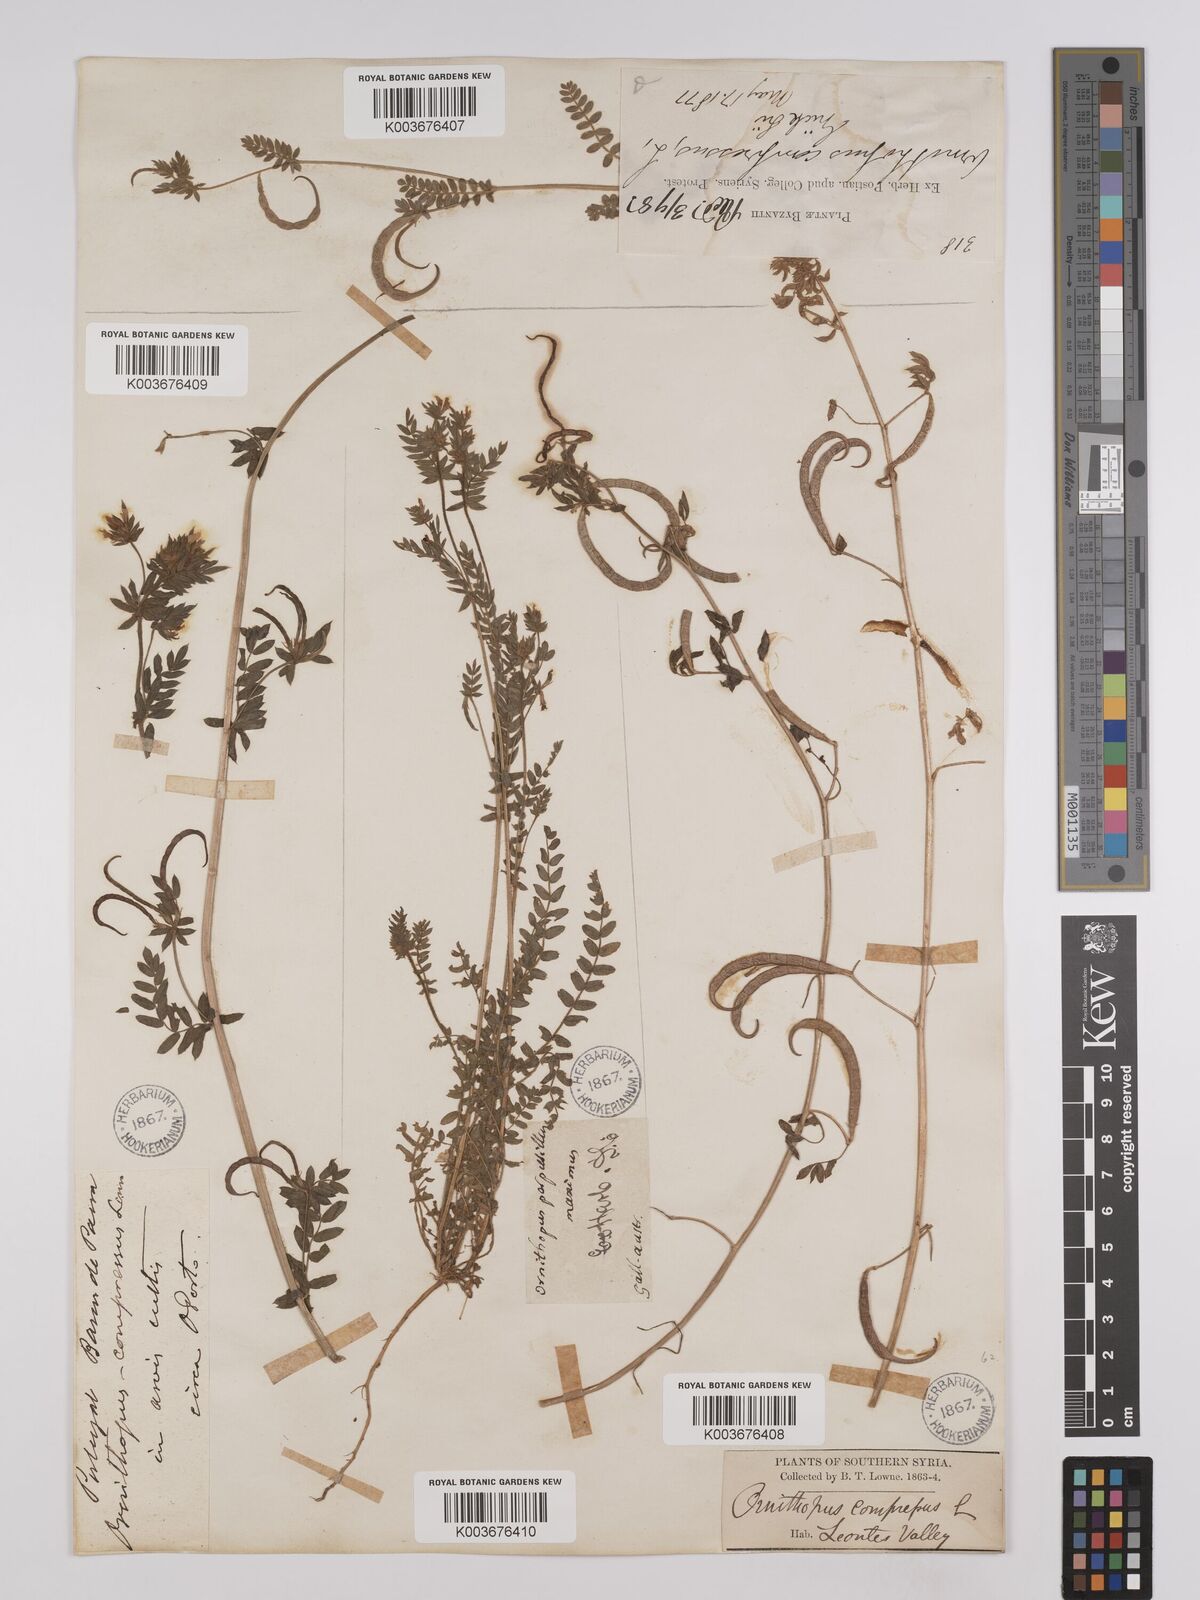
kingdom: Plantae
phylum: Tracheophyta
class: Magnoliopsida
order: Fabales
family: Fabaceae
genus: Ornithopus
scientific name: Ornithopus compressus
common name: Yellow serradella
